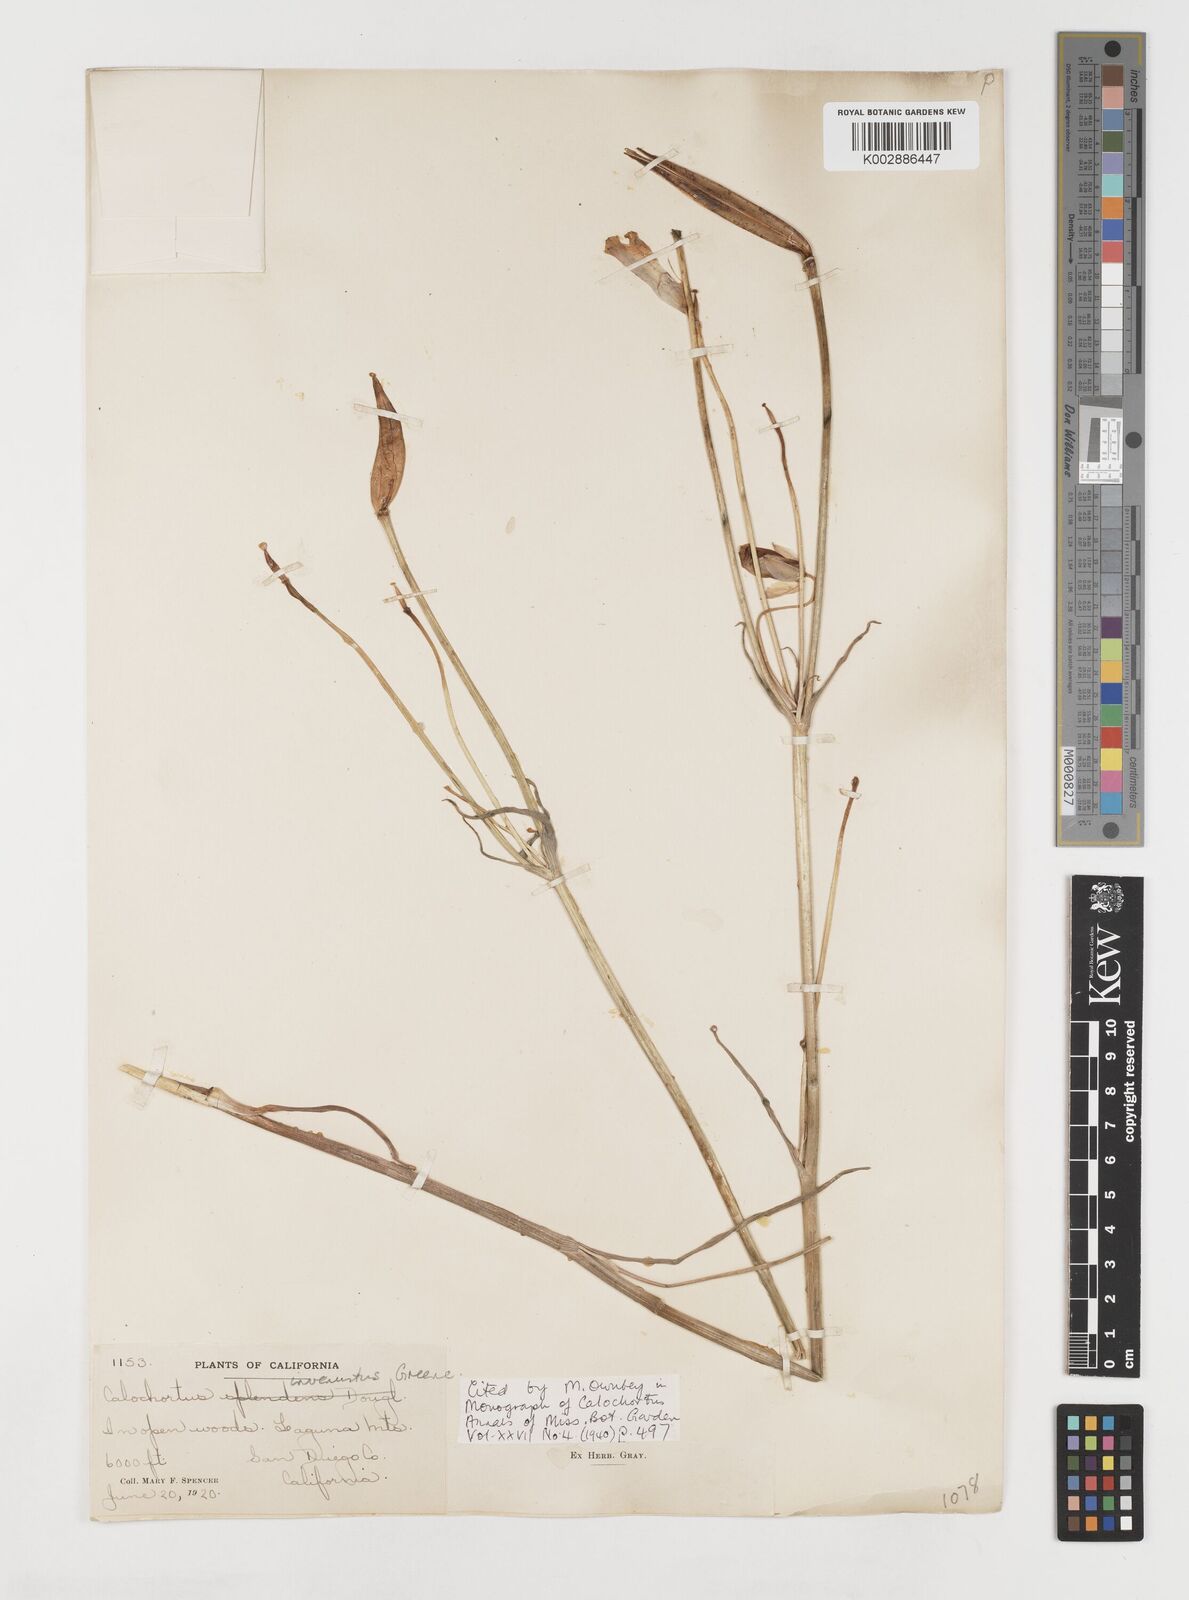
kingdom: Plantae
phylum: Tracheophyta
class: Liliopsida
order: Liliales
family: Liliaceae
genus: Calochortus
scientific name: Calochortus invenustus
